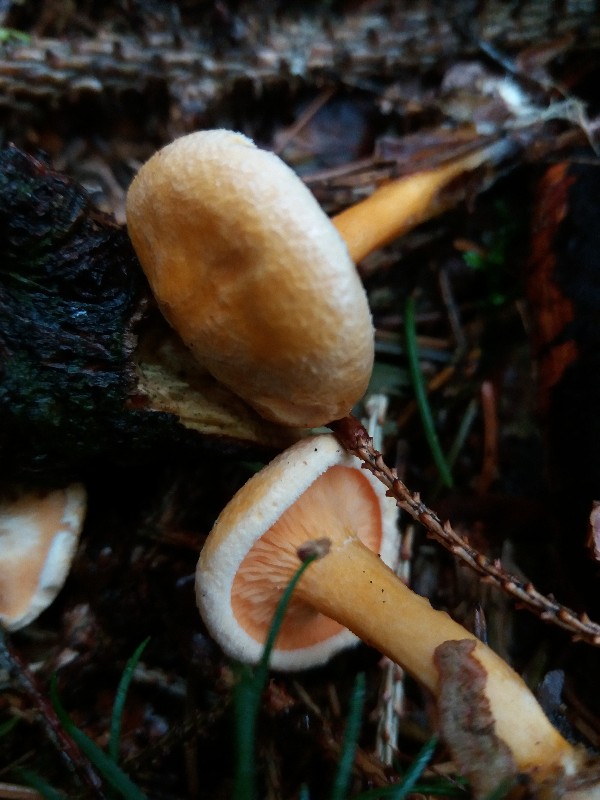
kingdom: Fungi
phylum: Basidiomycota
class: Agaricomycetes
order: Boletales
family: Hygrophoropsidaceae
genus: Hygrophoropsis
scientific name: Hygrophoropsis aurantiaca
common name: almindelig orangekantarel
